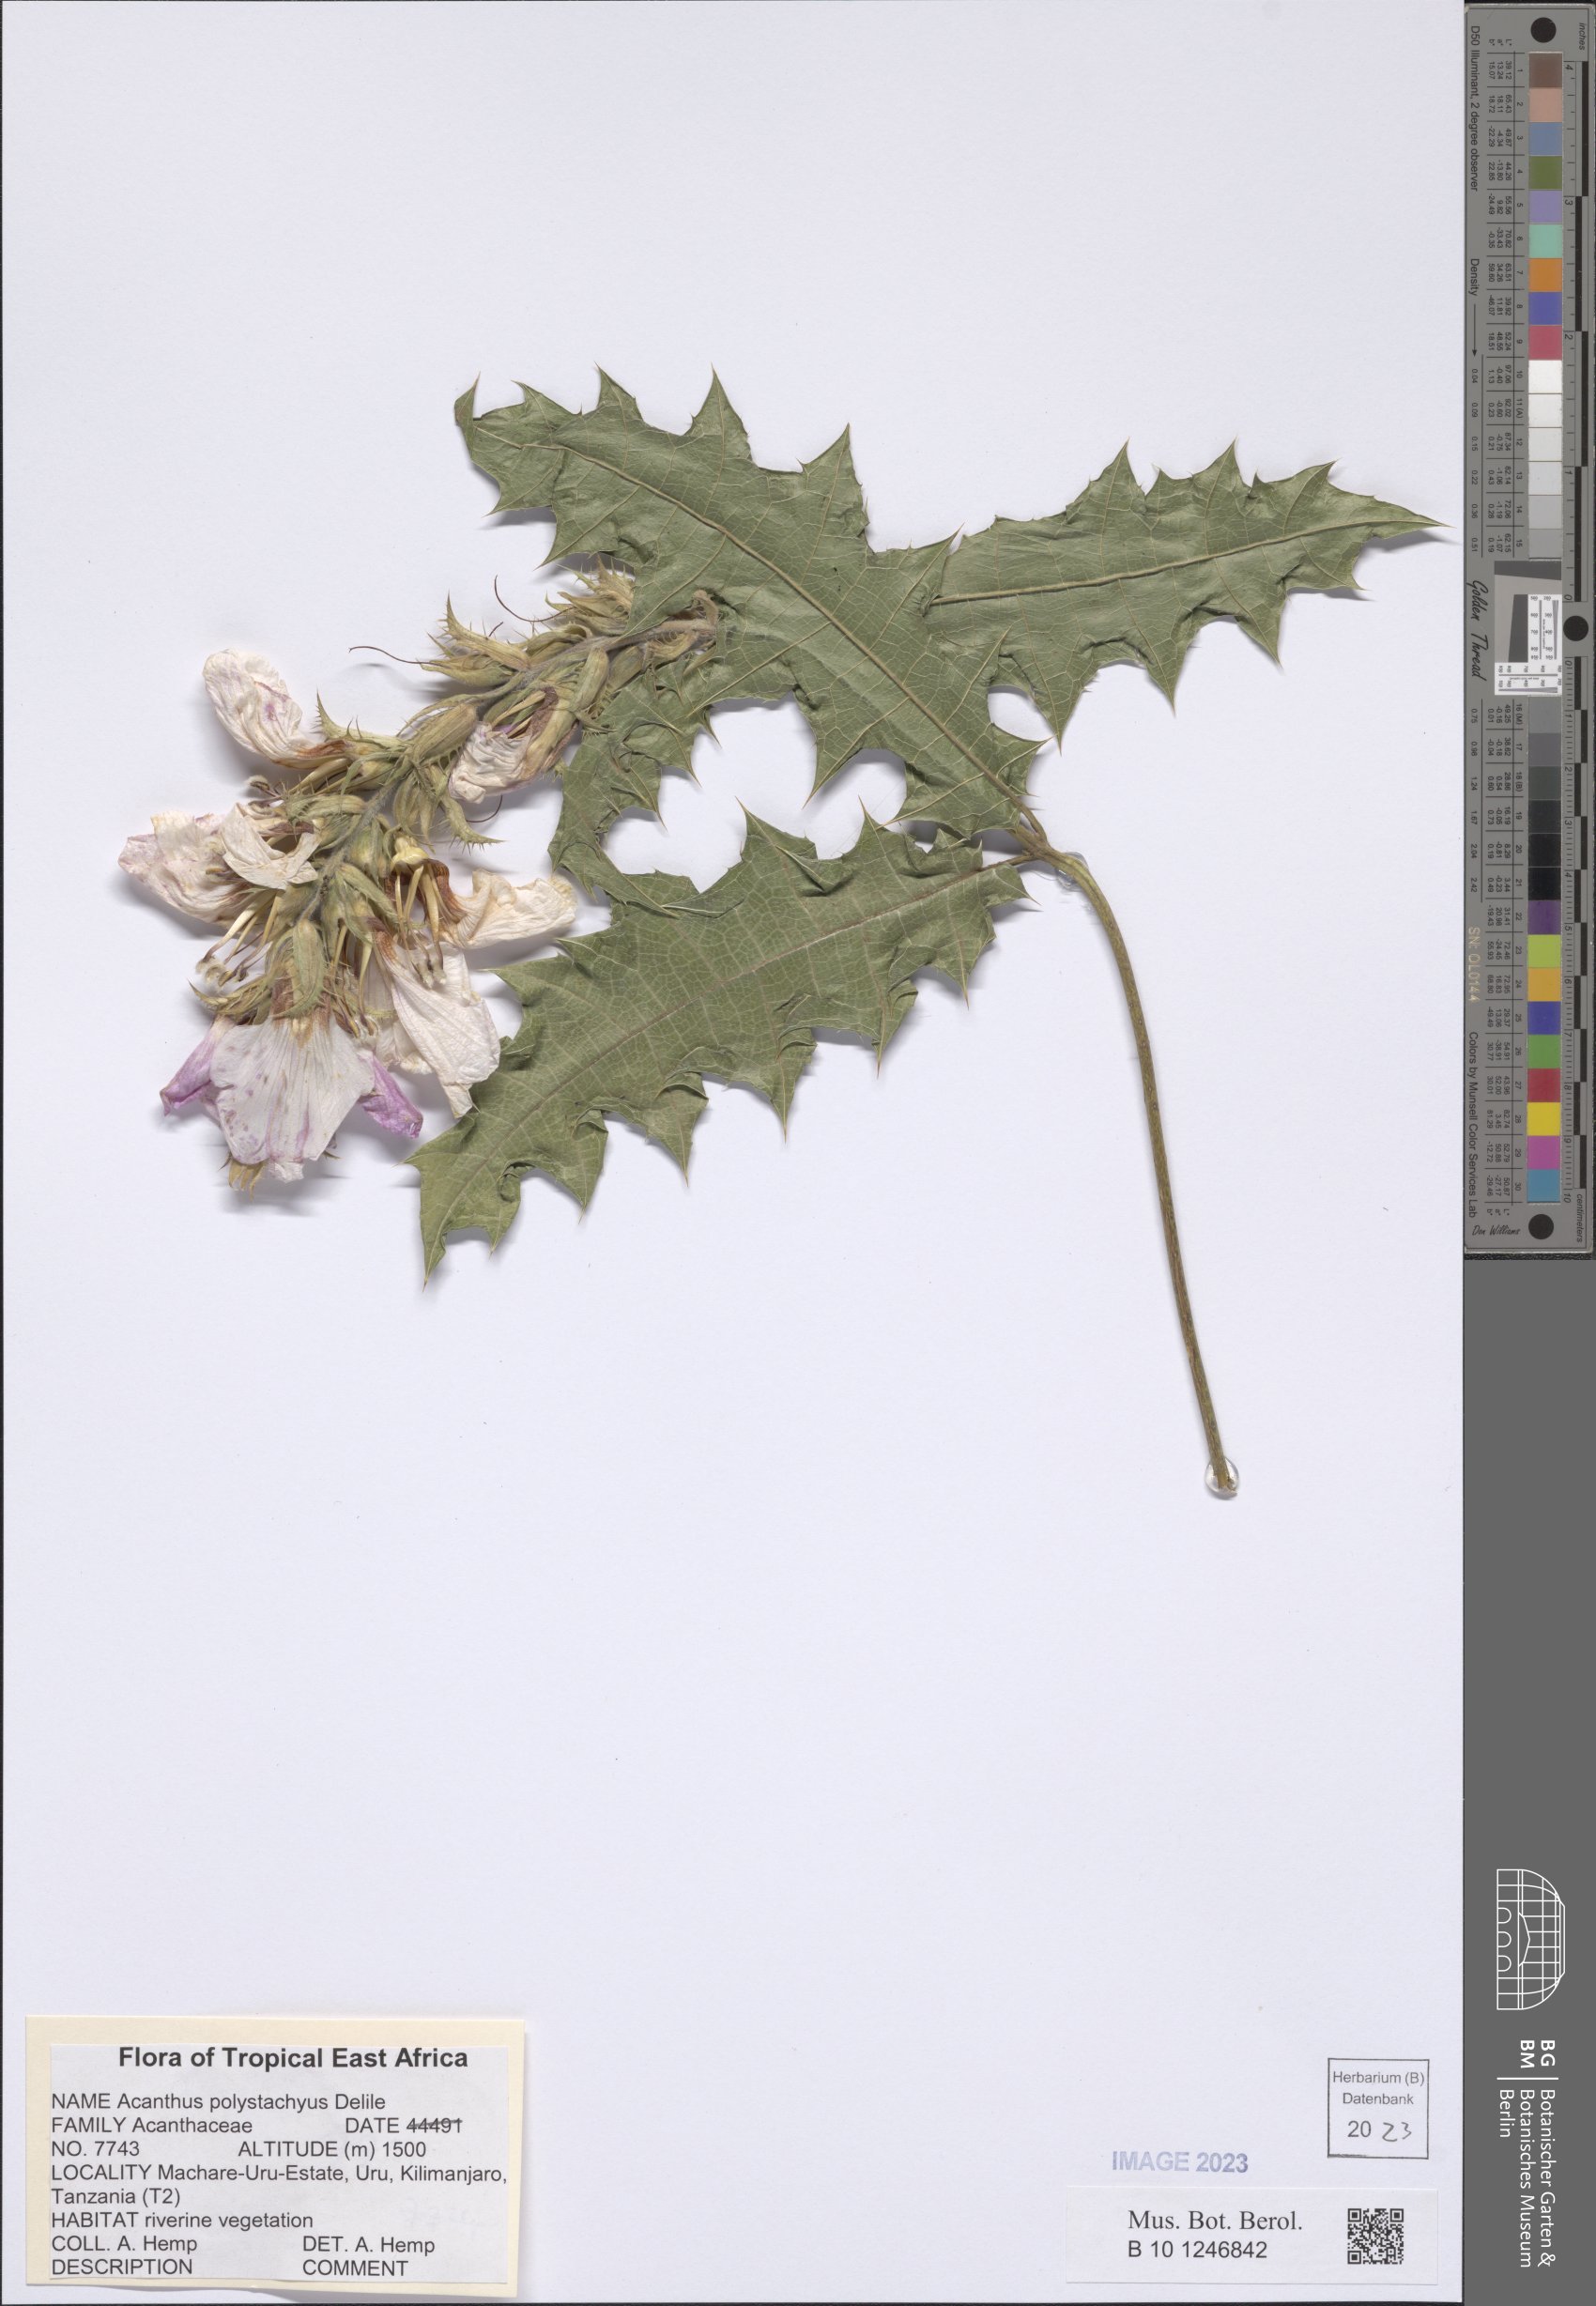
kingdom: Plantae
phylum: Tracheophyta
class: Magnoliopsida
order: Lamiales
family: Acanthaceae
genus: Acanthus
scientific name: Acanthus polystachyus
